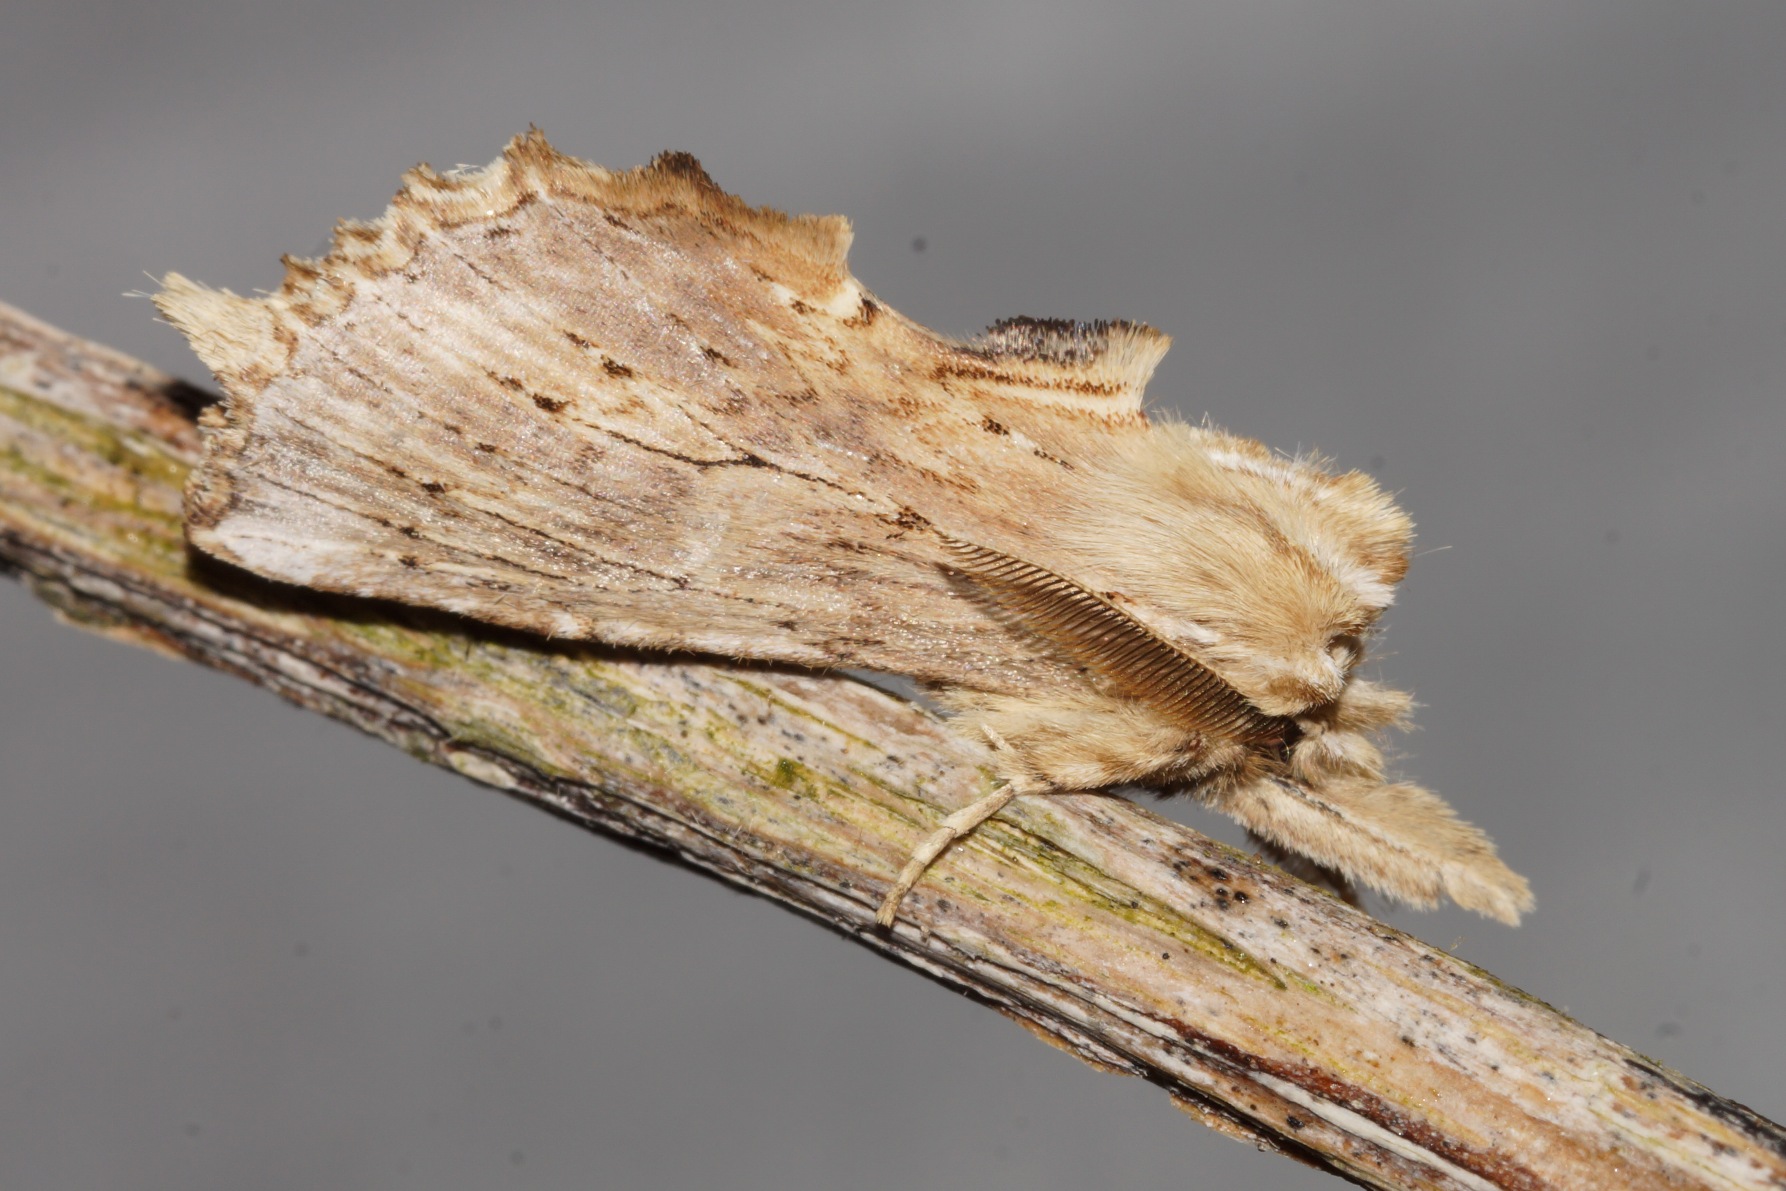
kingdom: Animalia
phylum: Arthropoda
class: Insecta
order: Lepidoptera
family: Notodontidae
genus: Pterostoma
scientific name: Pterostoma palpina
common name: Palpetandspinder
